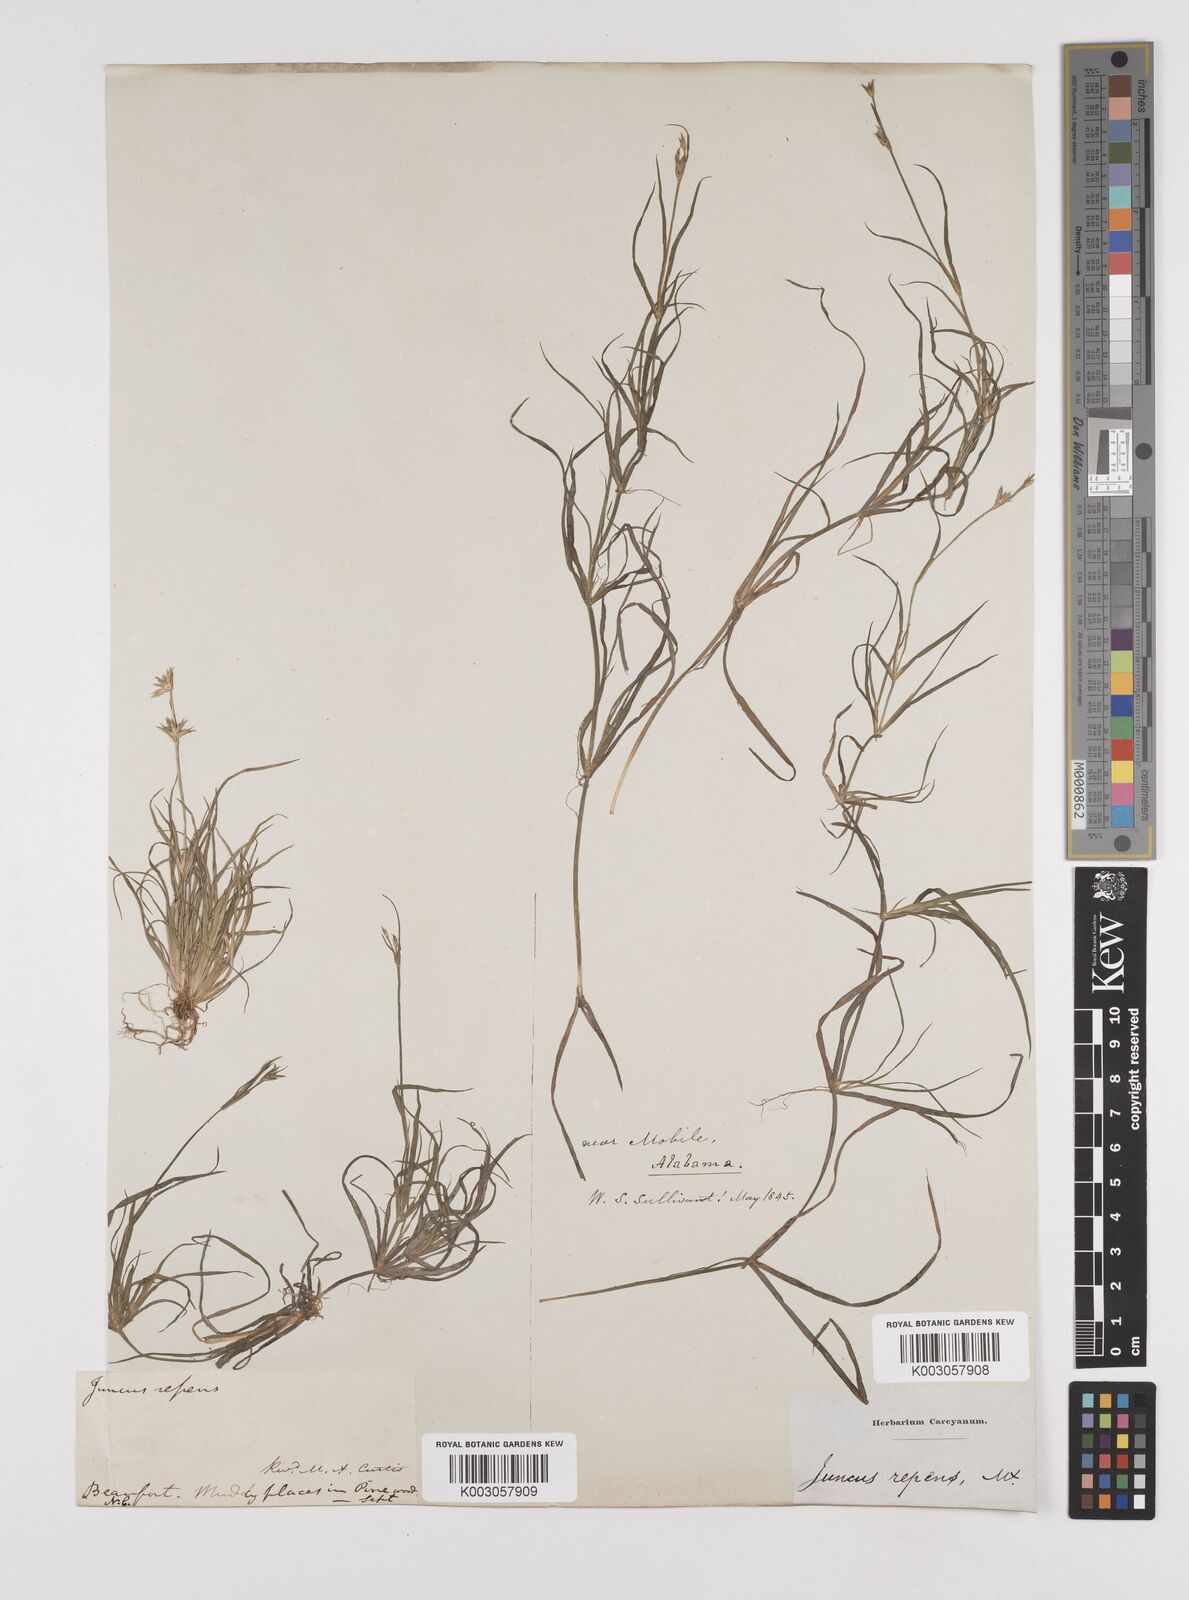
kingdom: Plantae
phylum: Tracheophyta
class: Liliopsida
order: Poales
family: Juncaceae
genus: Juncus
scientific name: Juncus repens
